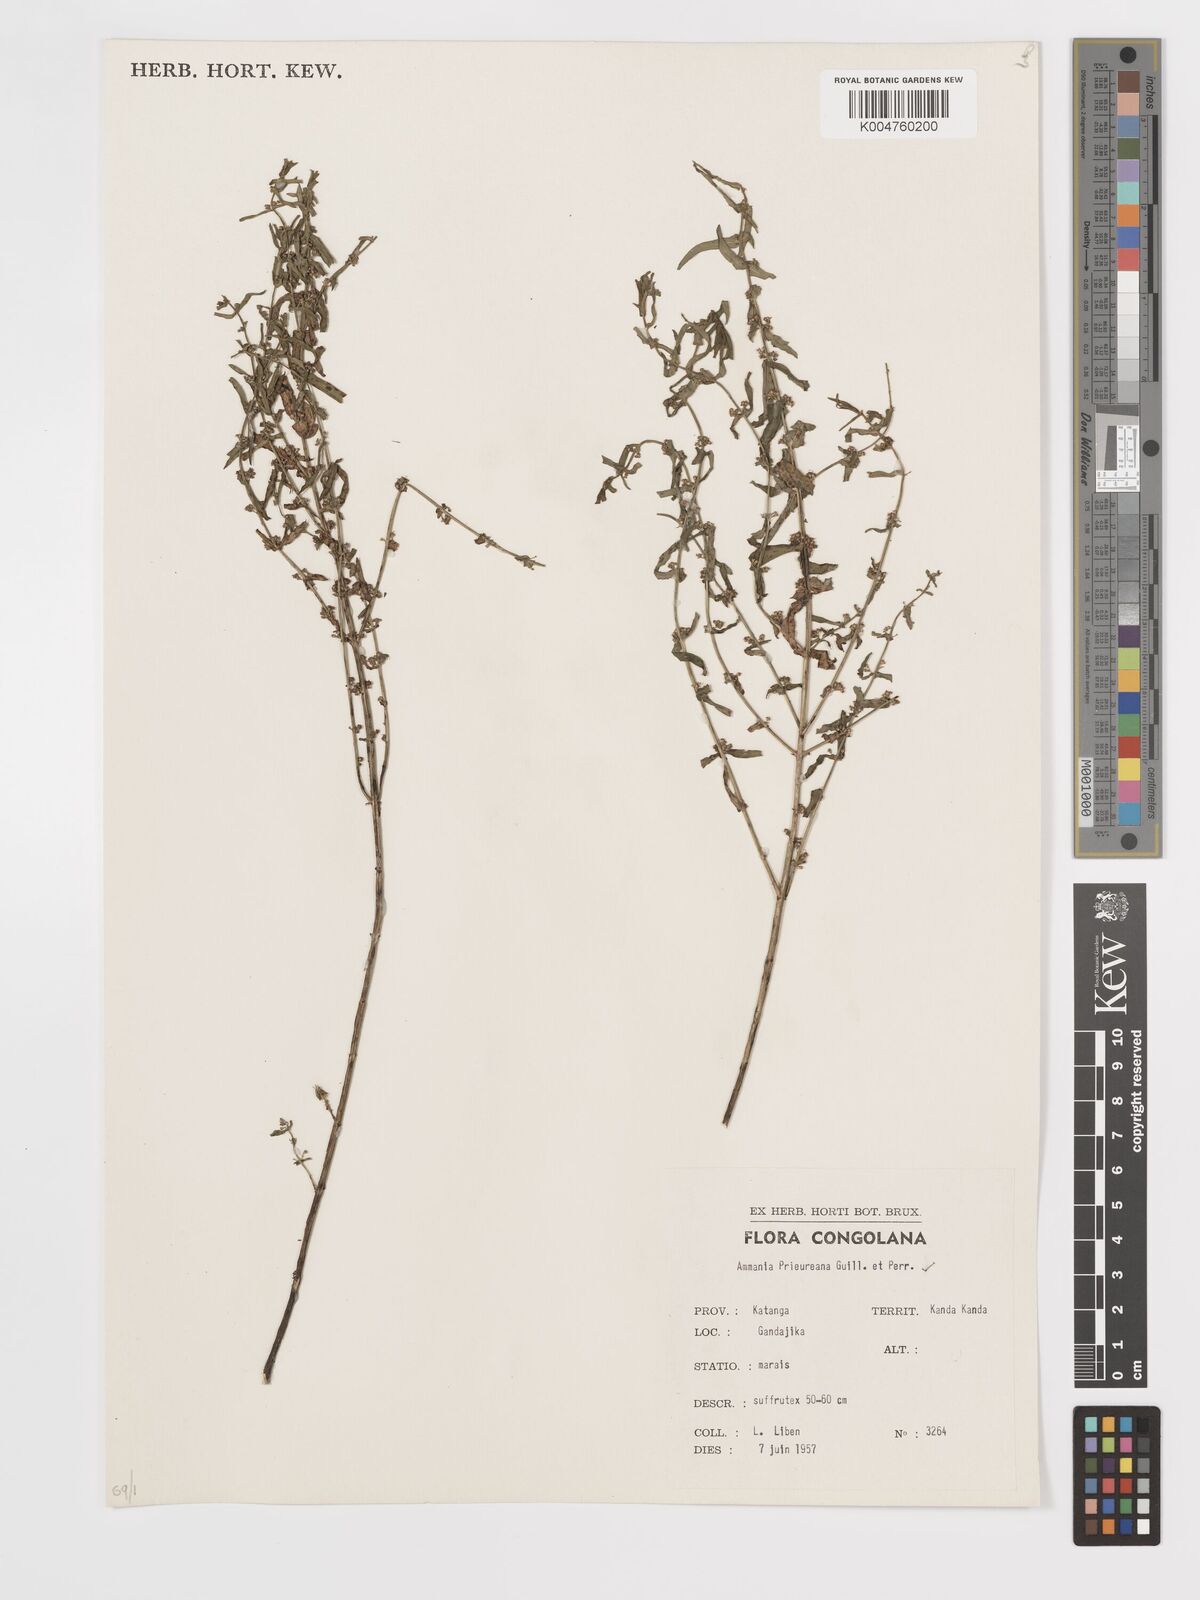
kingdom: Plantae
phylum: Tracheophyta
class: Magnoliopsida
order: Myrtales
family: Lythraceae
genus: Ammannia
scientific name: Ammannia prieuriana
